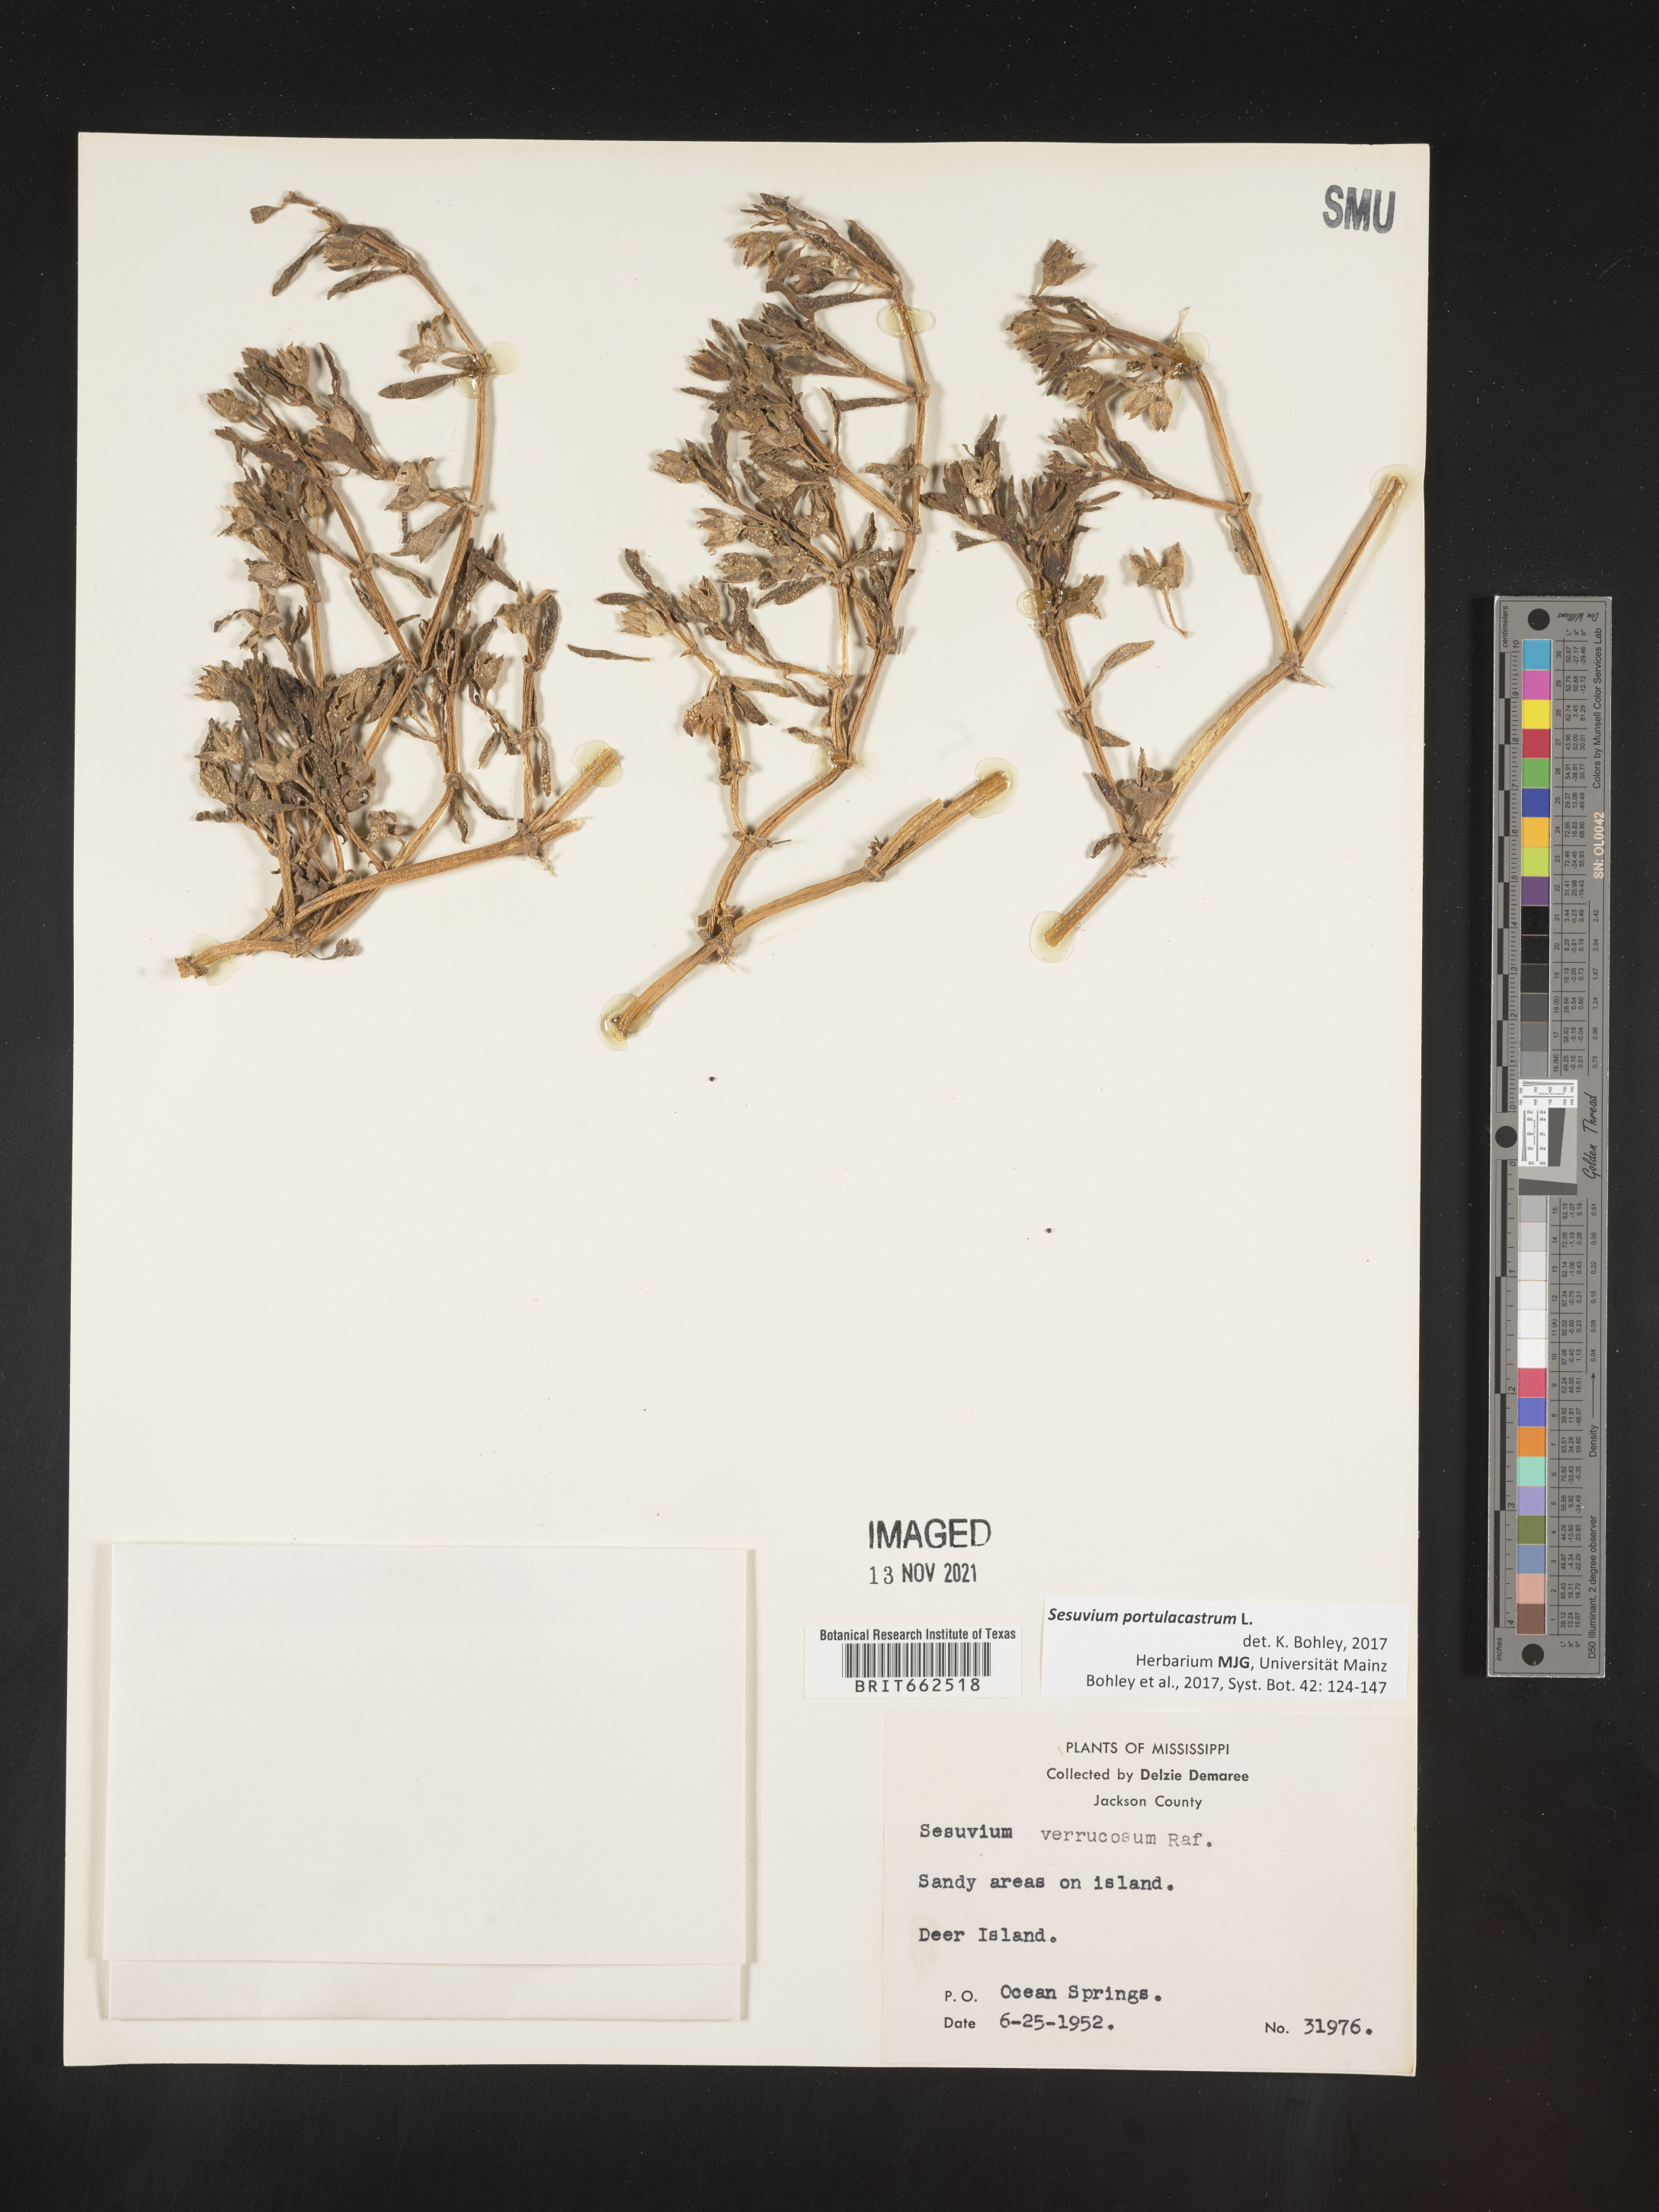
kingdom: Plantae
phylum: Tracheophyta
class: Magnoliopsida
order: Caryophyllales
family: Aizoaceae
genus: Sesuvium
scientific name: Sesuvium portulacastrum
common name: Sea-purslane
